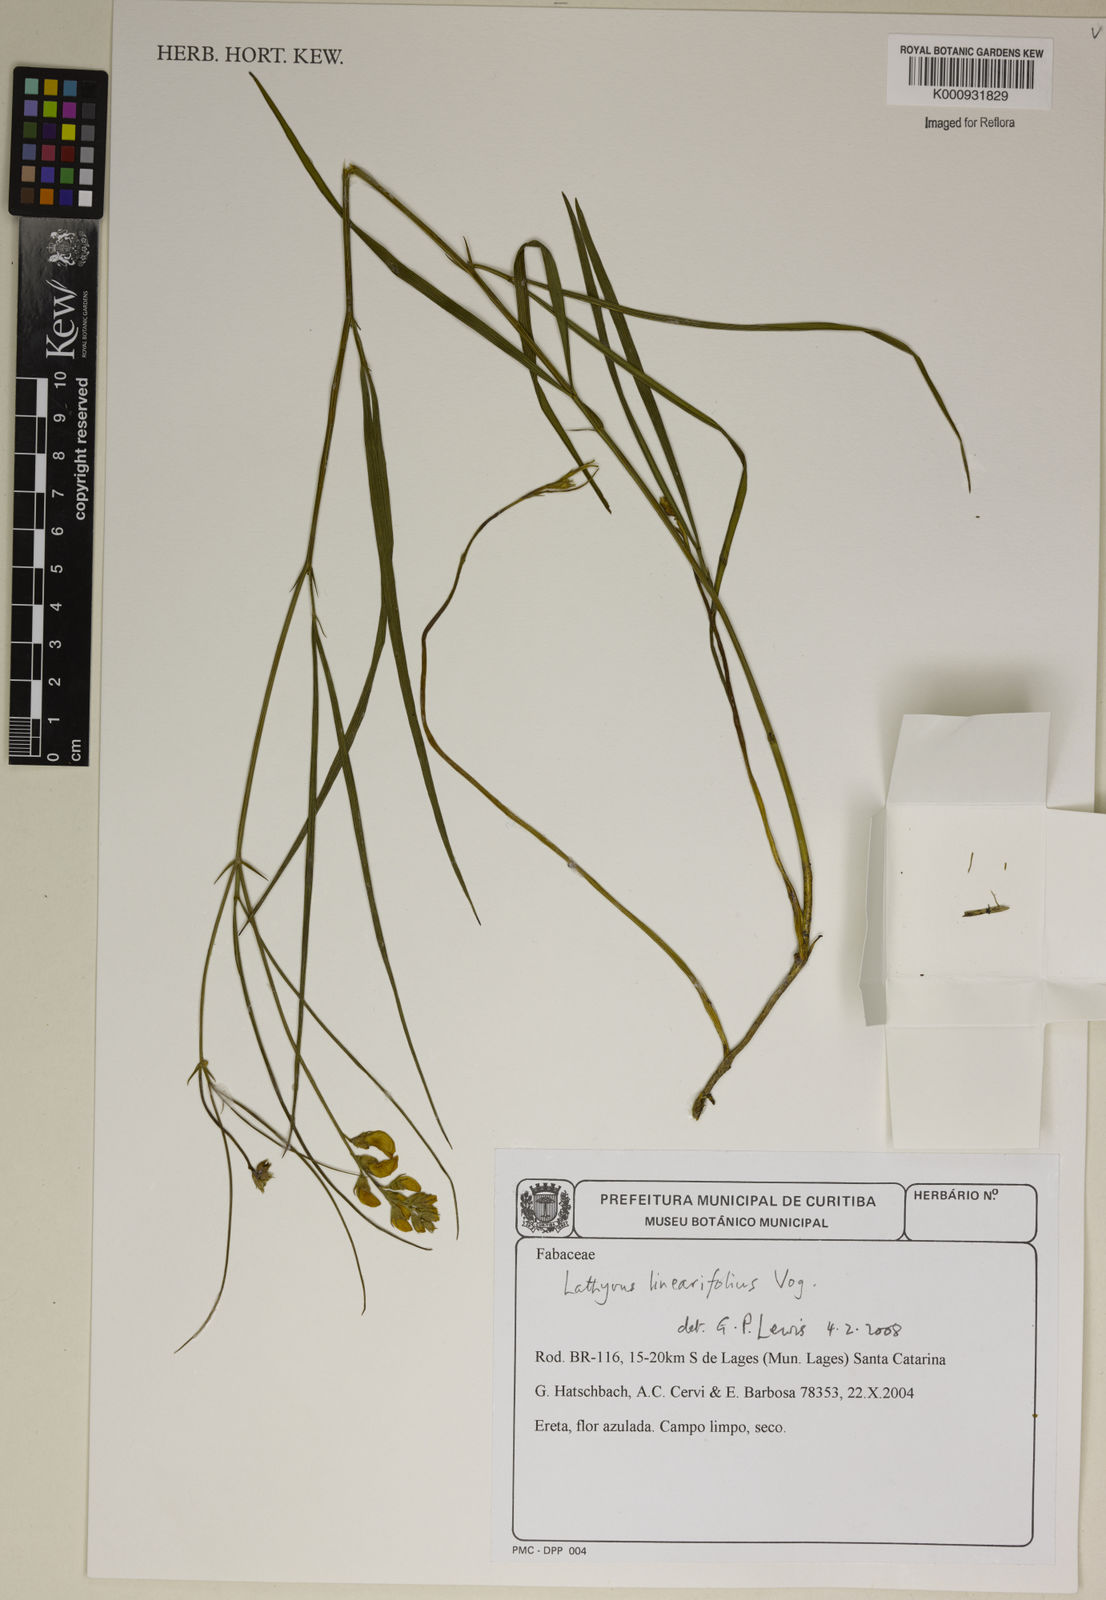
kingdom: Plantae
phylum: Tracheophyta
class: Magnoliopsida
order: Fabales
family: Fabaceae
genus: Lathyrus
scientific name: Lathyrus linearifolius
